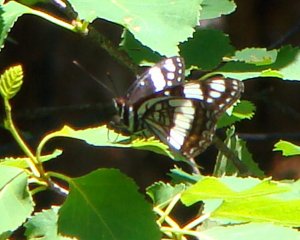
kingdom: Animalia
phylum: Arthropoda
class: Insecta
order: Lepidoptera
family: Nymphalidae
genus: Limenitis
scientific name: Limenitis weidemeyerii
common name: Weidemeyer's Admiral
